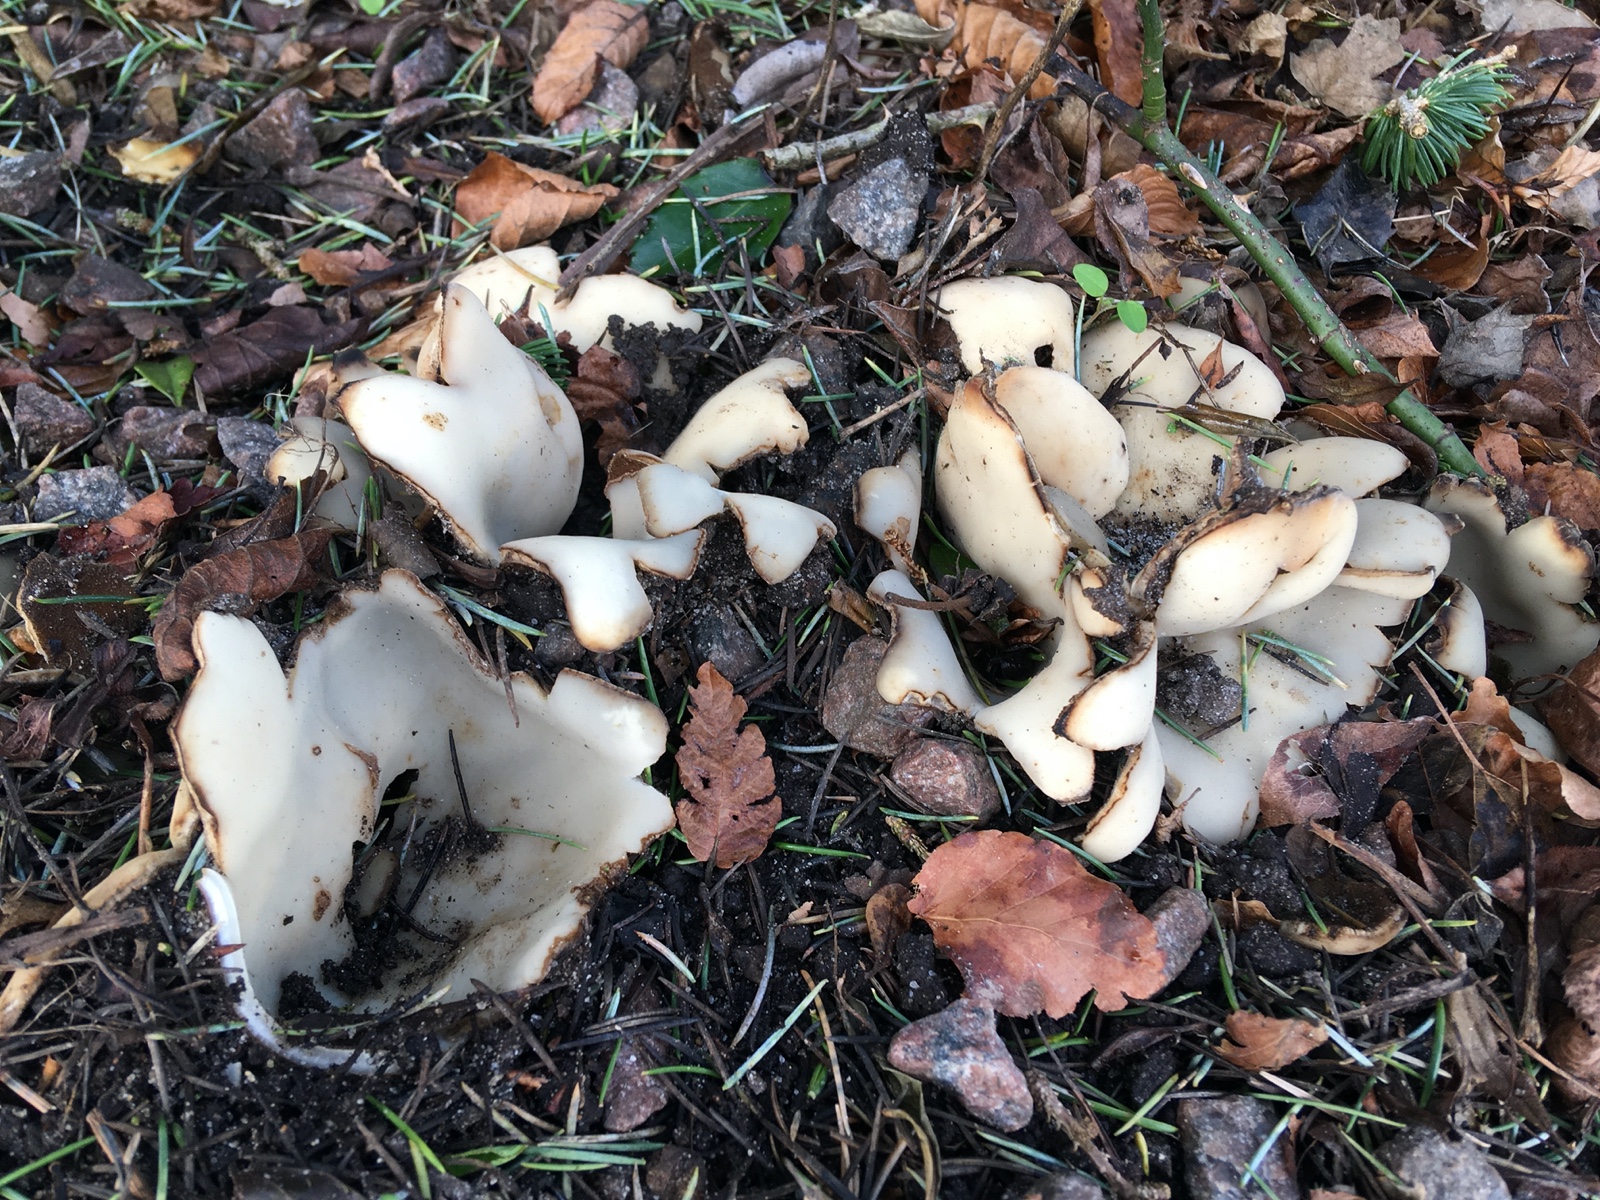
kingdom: Fungi
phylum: Ascomycota
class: Pezizomycetes
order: Pezizales
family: Pyronemataceae
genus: Geopora
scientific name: Geopora sumneriana
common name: vår-jordbæger
